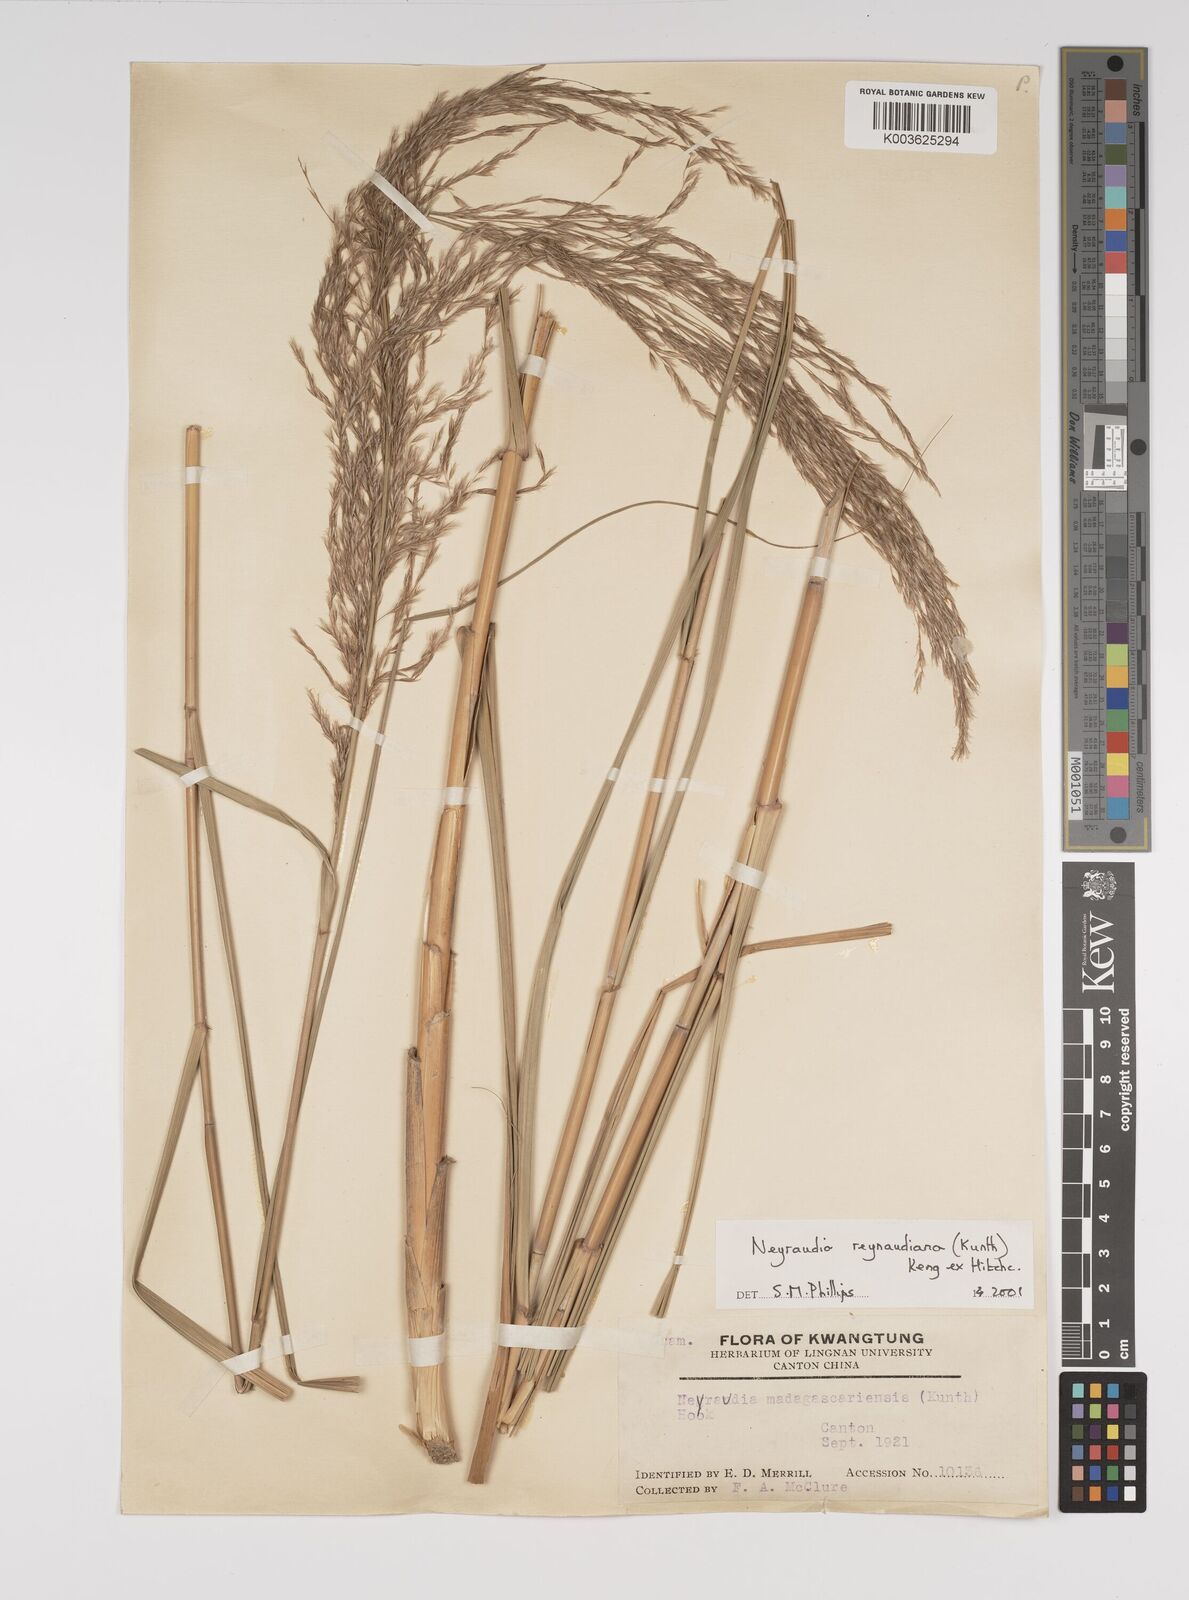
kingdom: Plantae
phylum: Tracheophyta
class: Liliopsida
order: Poales
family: Poaceae
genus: Neyraudia
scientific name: Neyraudia reynaudiana
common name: Silkreed
